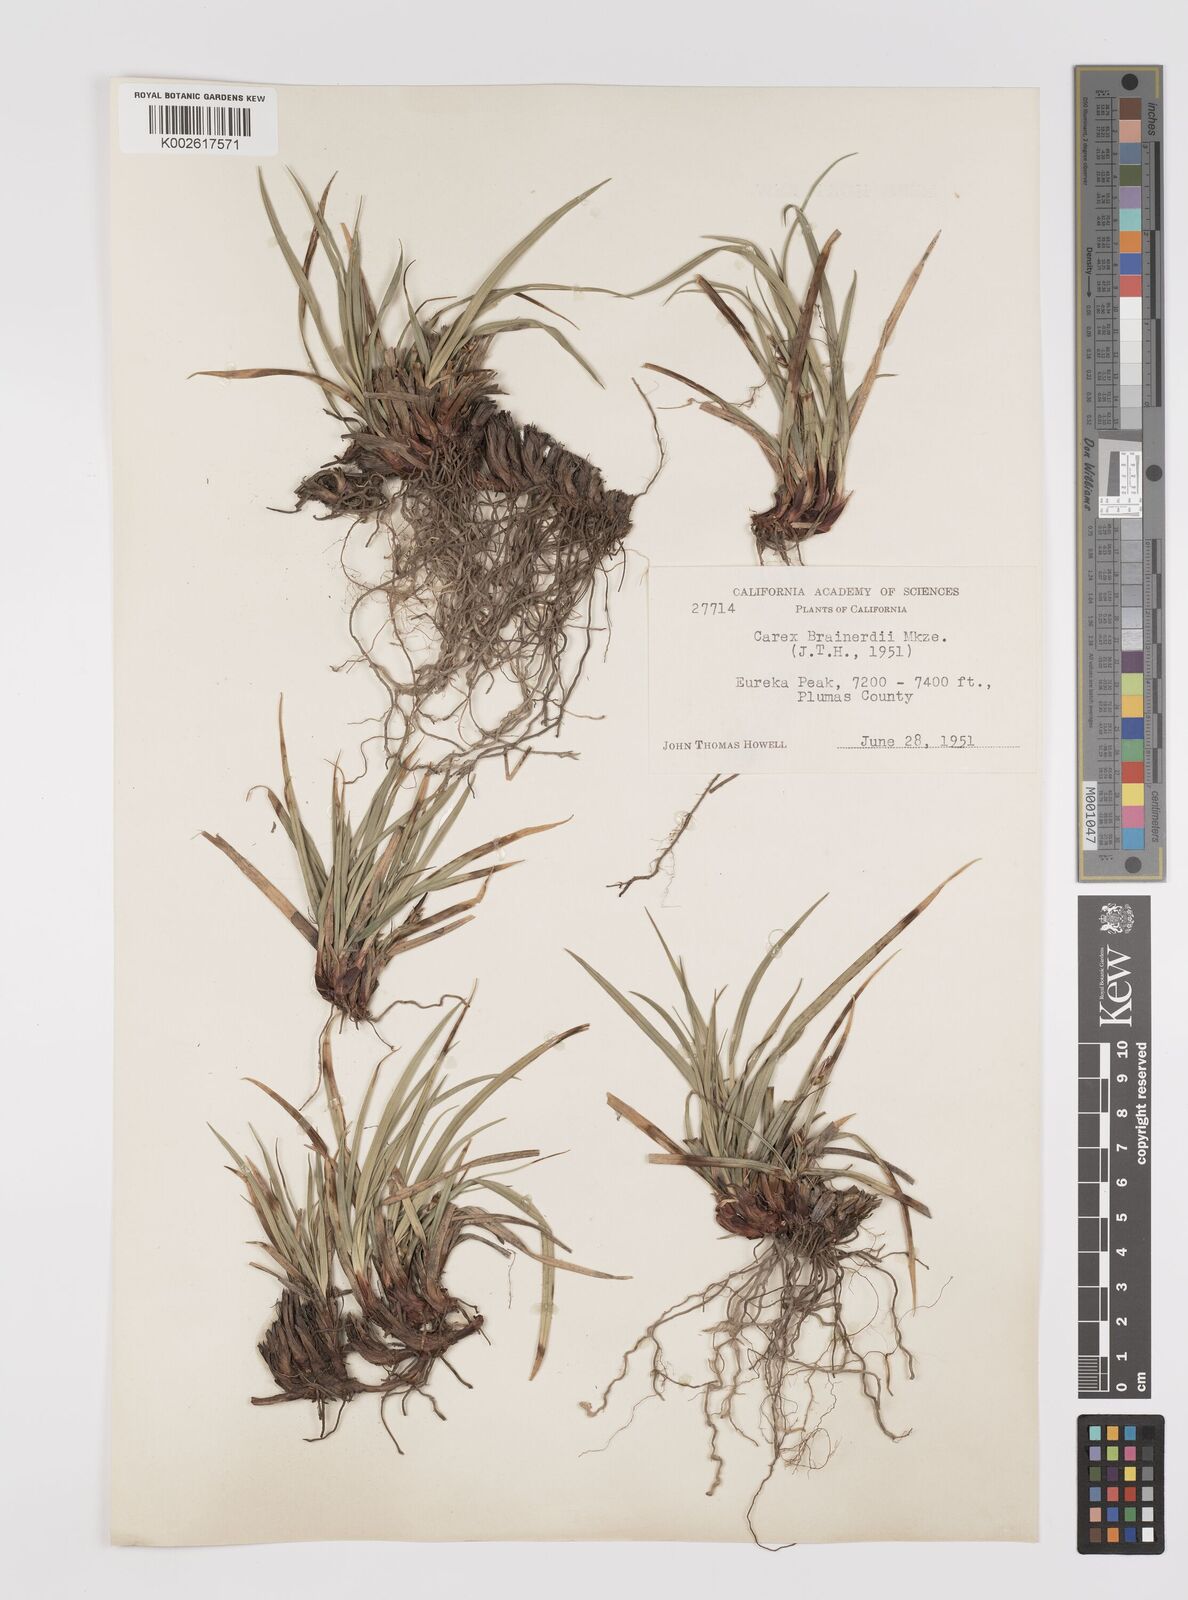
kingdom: Plantae
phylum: Tracheophyta
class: Liliopsida
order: Poales
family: Cyperaceae
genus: Carex
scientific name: Carex brainerdii
